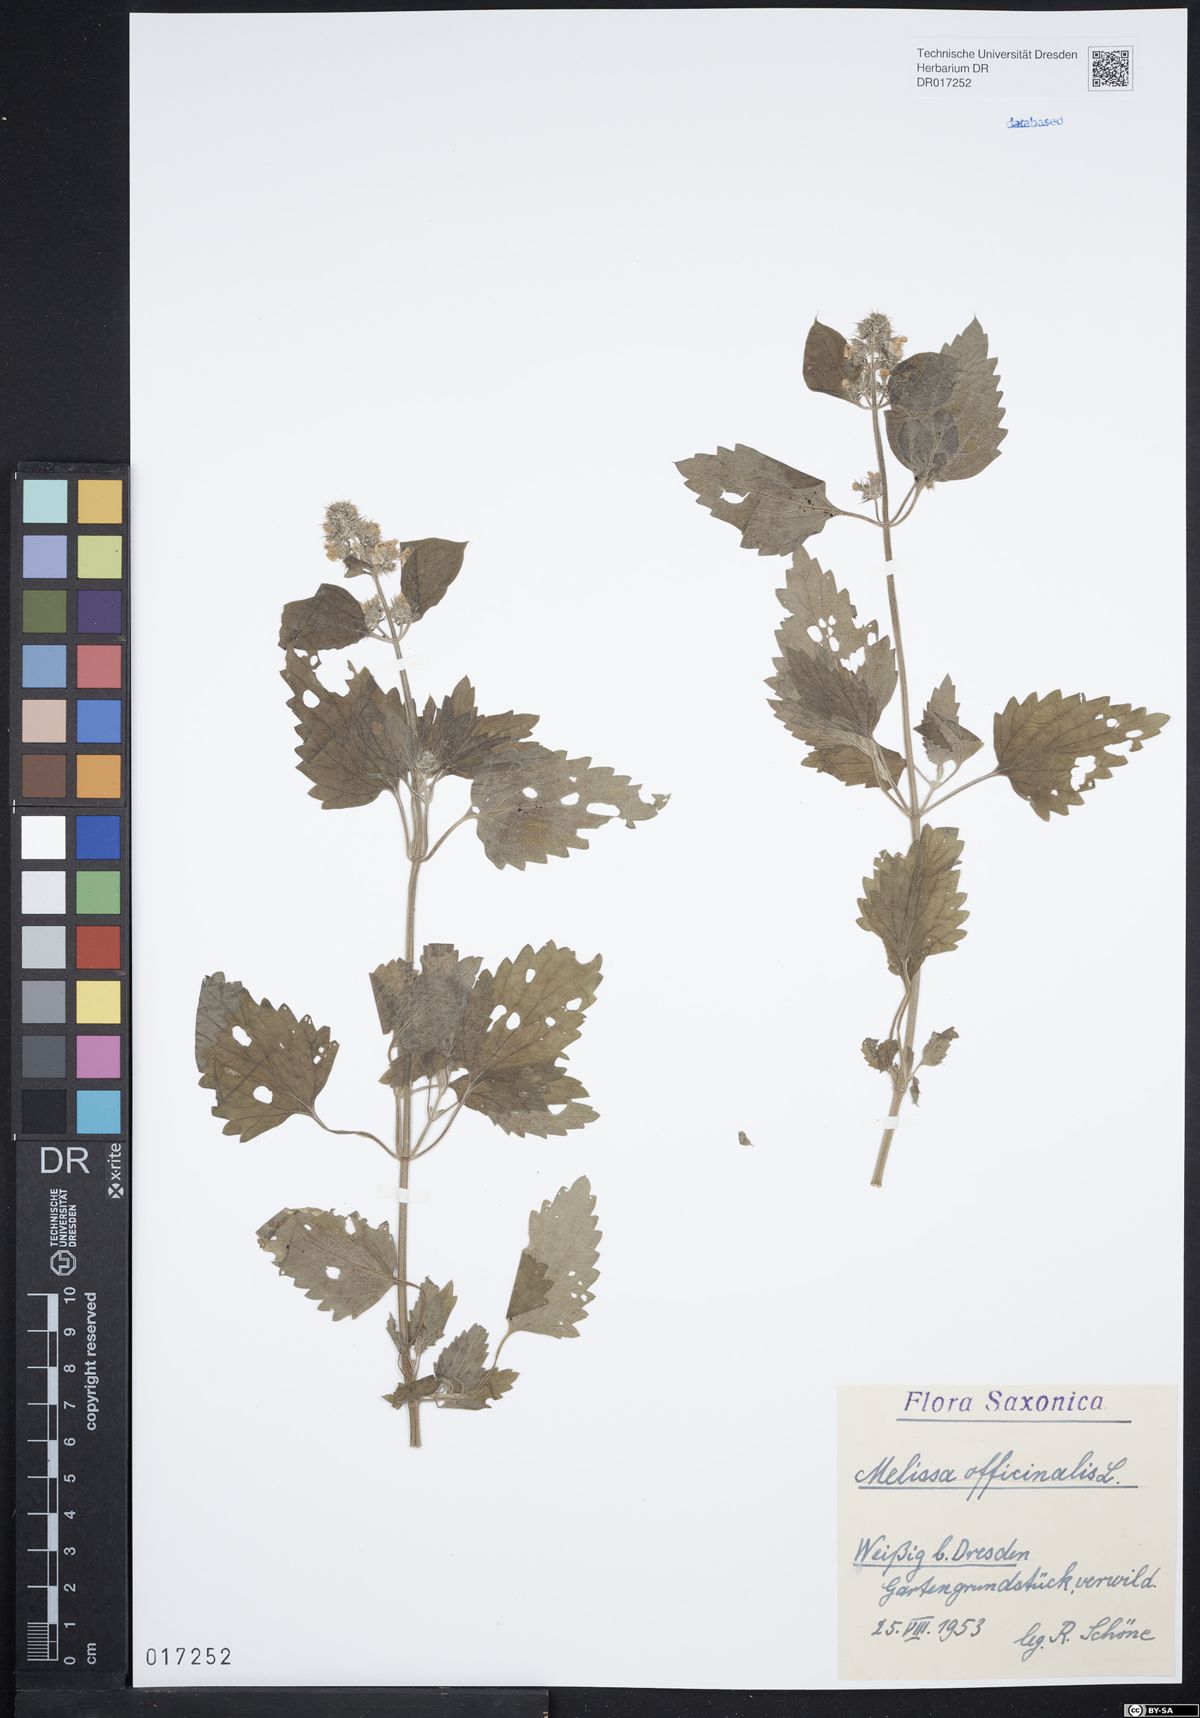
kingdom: Plantae
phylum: Tracheophyta
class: Magnoliopsida
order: Lamiales
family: Lamiaceae
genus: Melissa
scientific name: Melissa officinalis
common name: Balm
